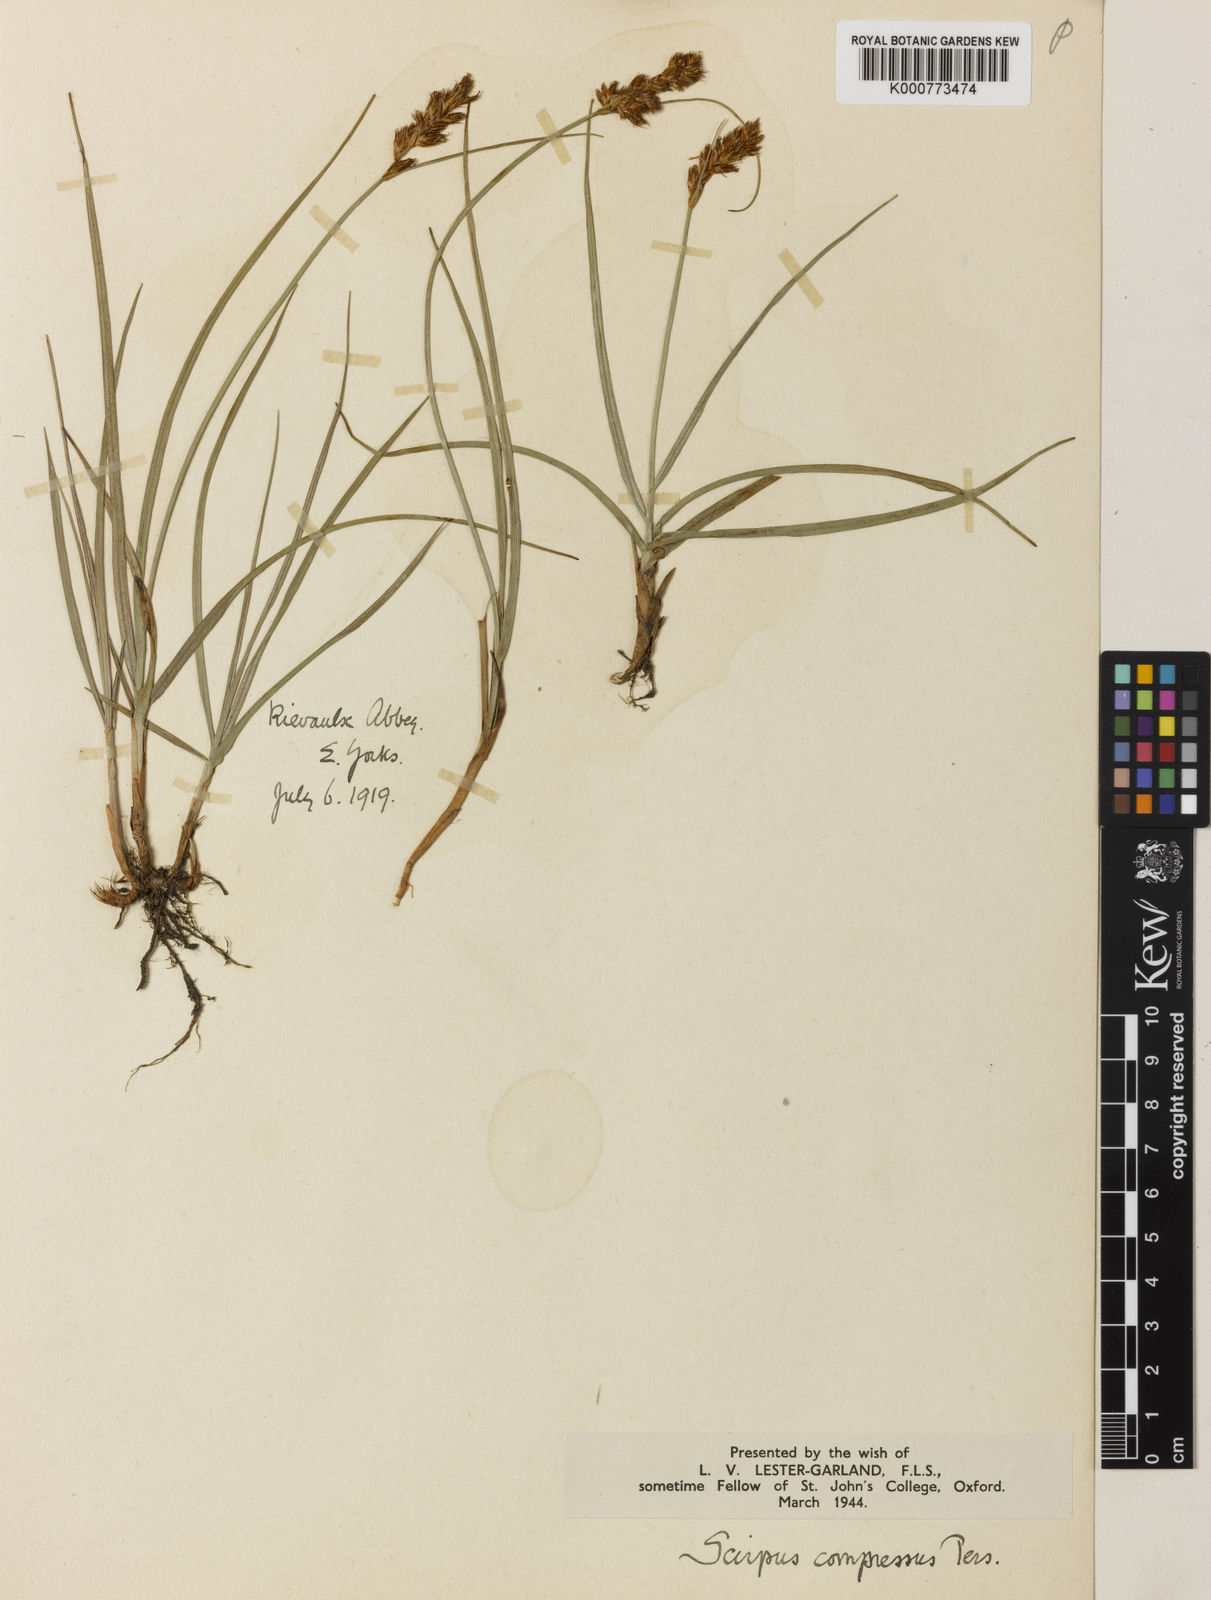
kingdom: Plantae
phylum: Tracheophyta
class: Liliopsida
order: Poales
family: Cyperaceae
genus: Blysmus
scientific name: Blysmus compressus
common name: Flat-sedge
